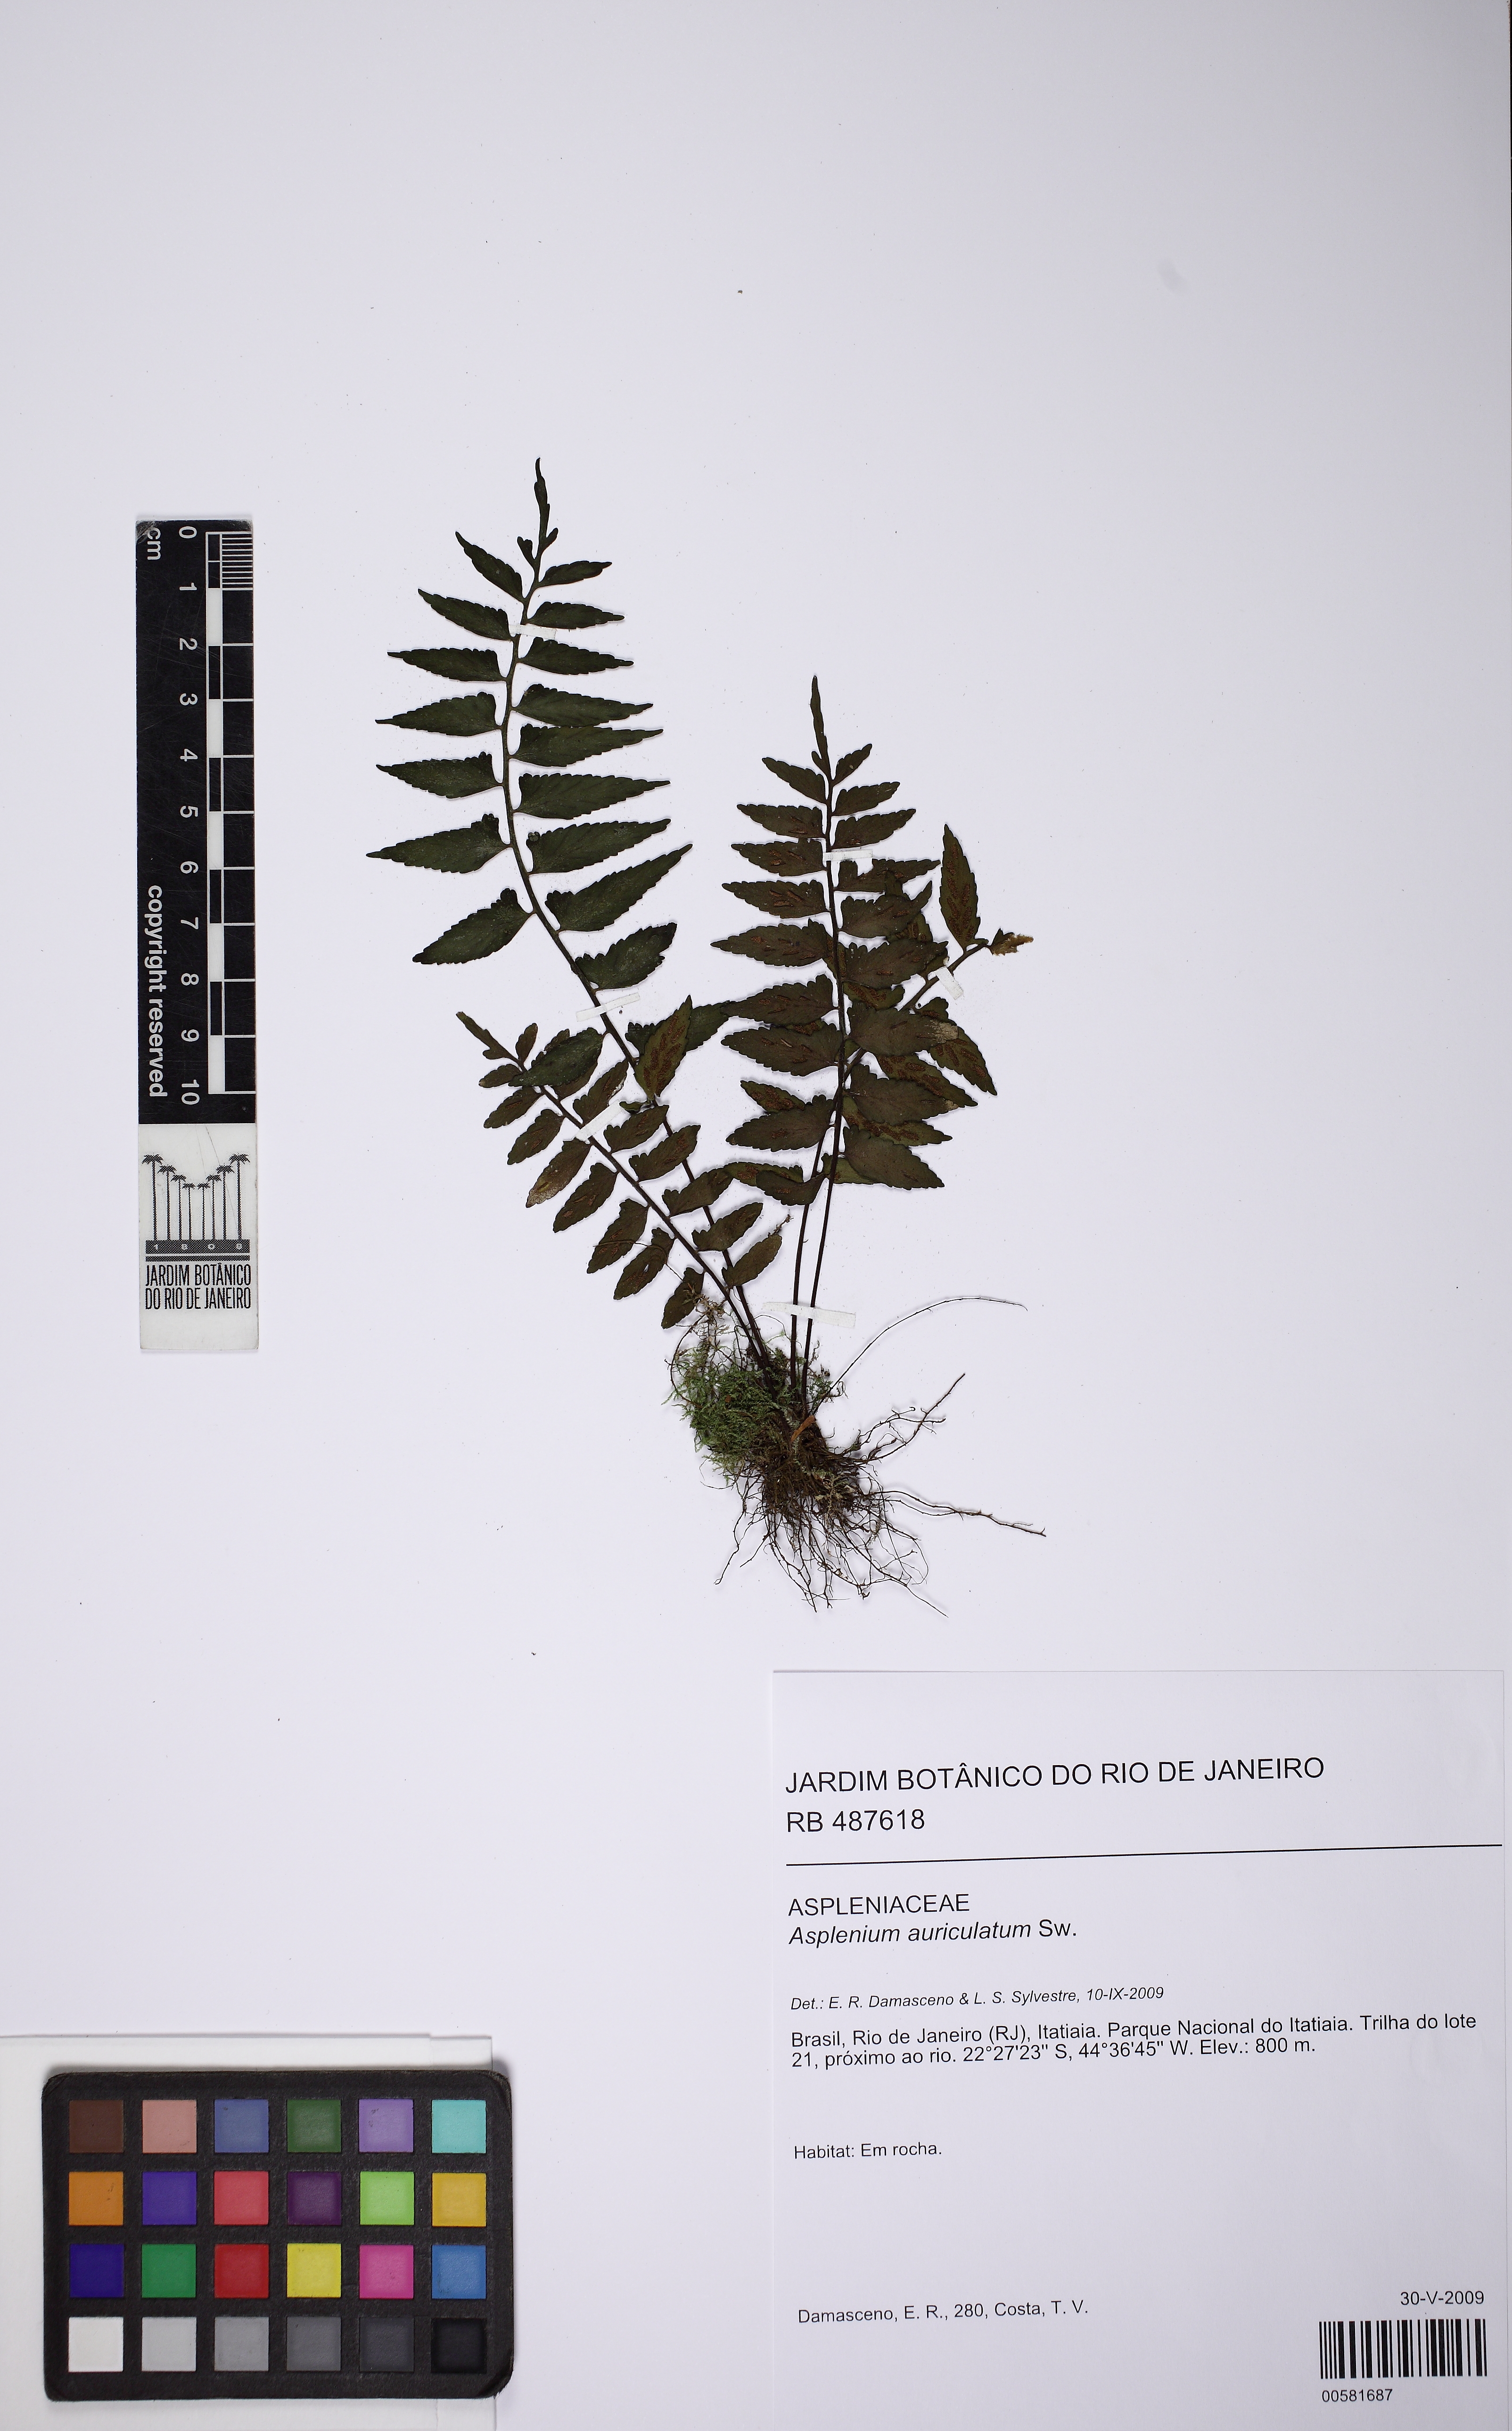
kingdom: Plantae
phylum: Tracheophyta
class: Polypodiopsida
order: Polypodiales
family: Aspleniaceae
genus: Asplenium
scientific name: Asplenium auriculatum
